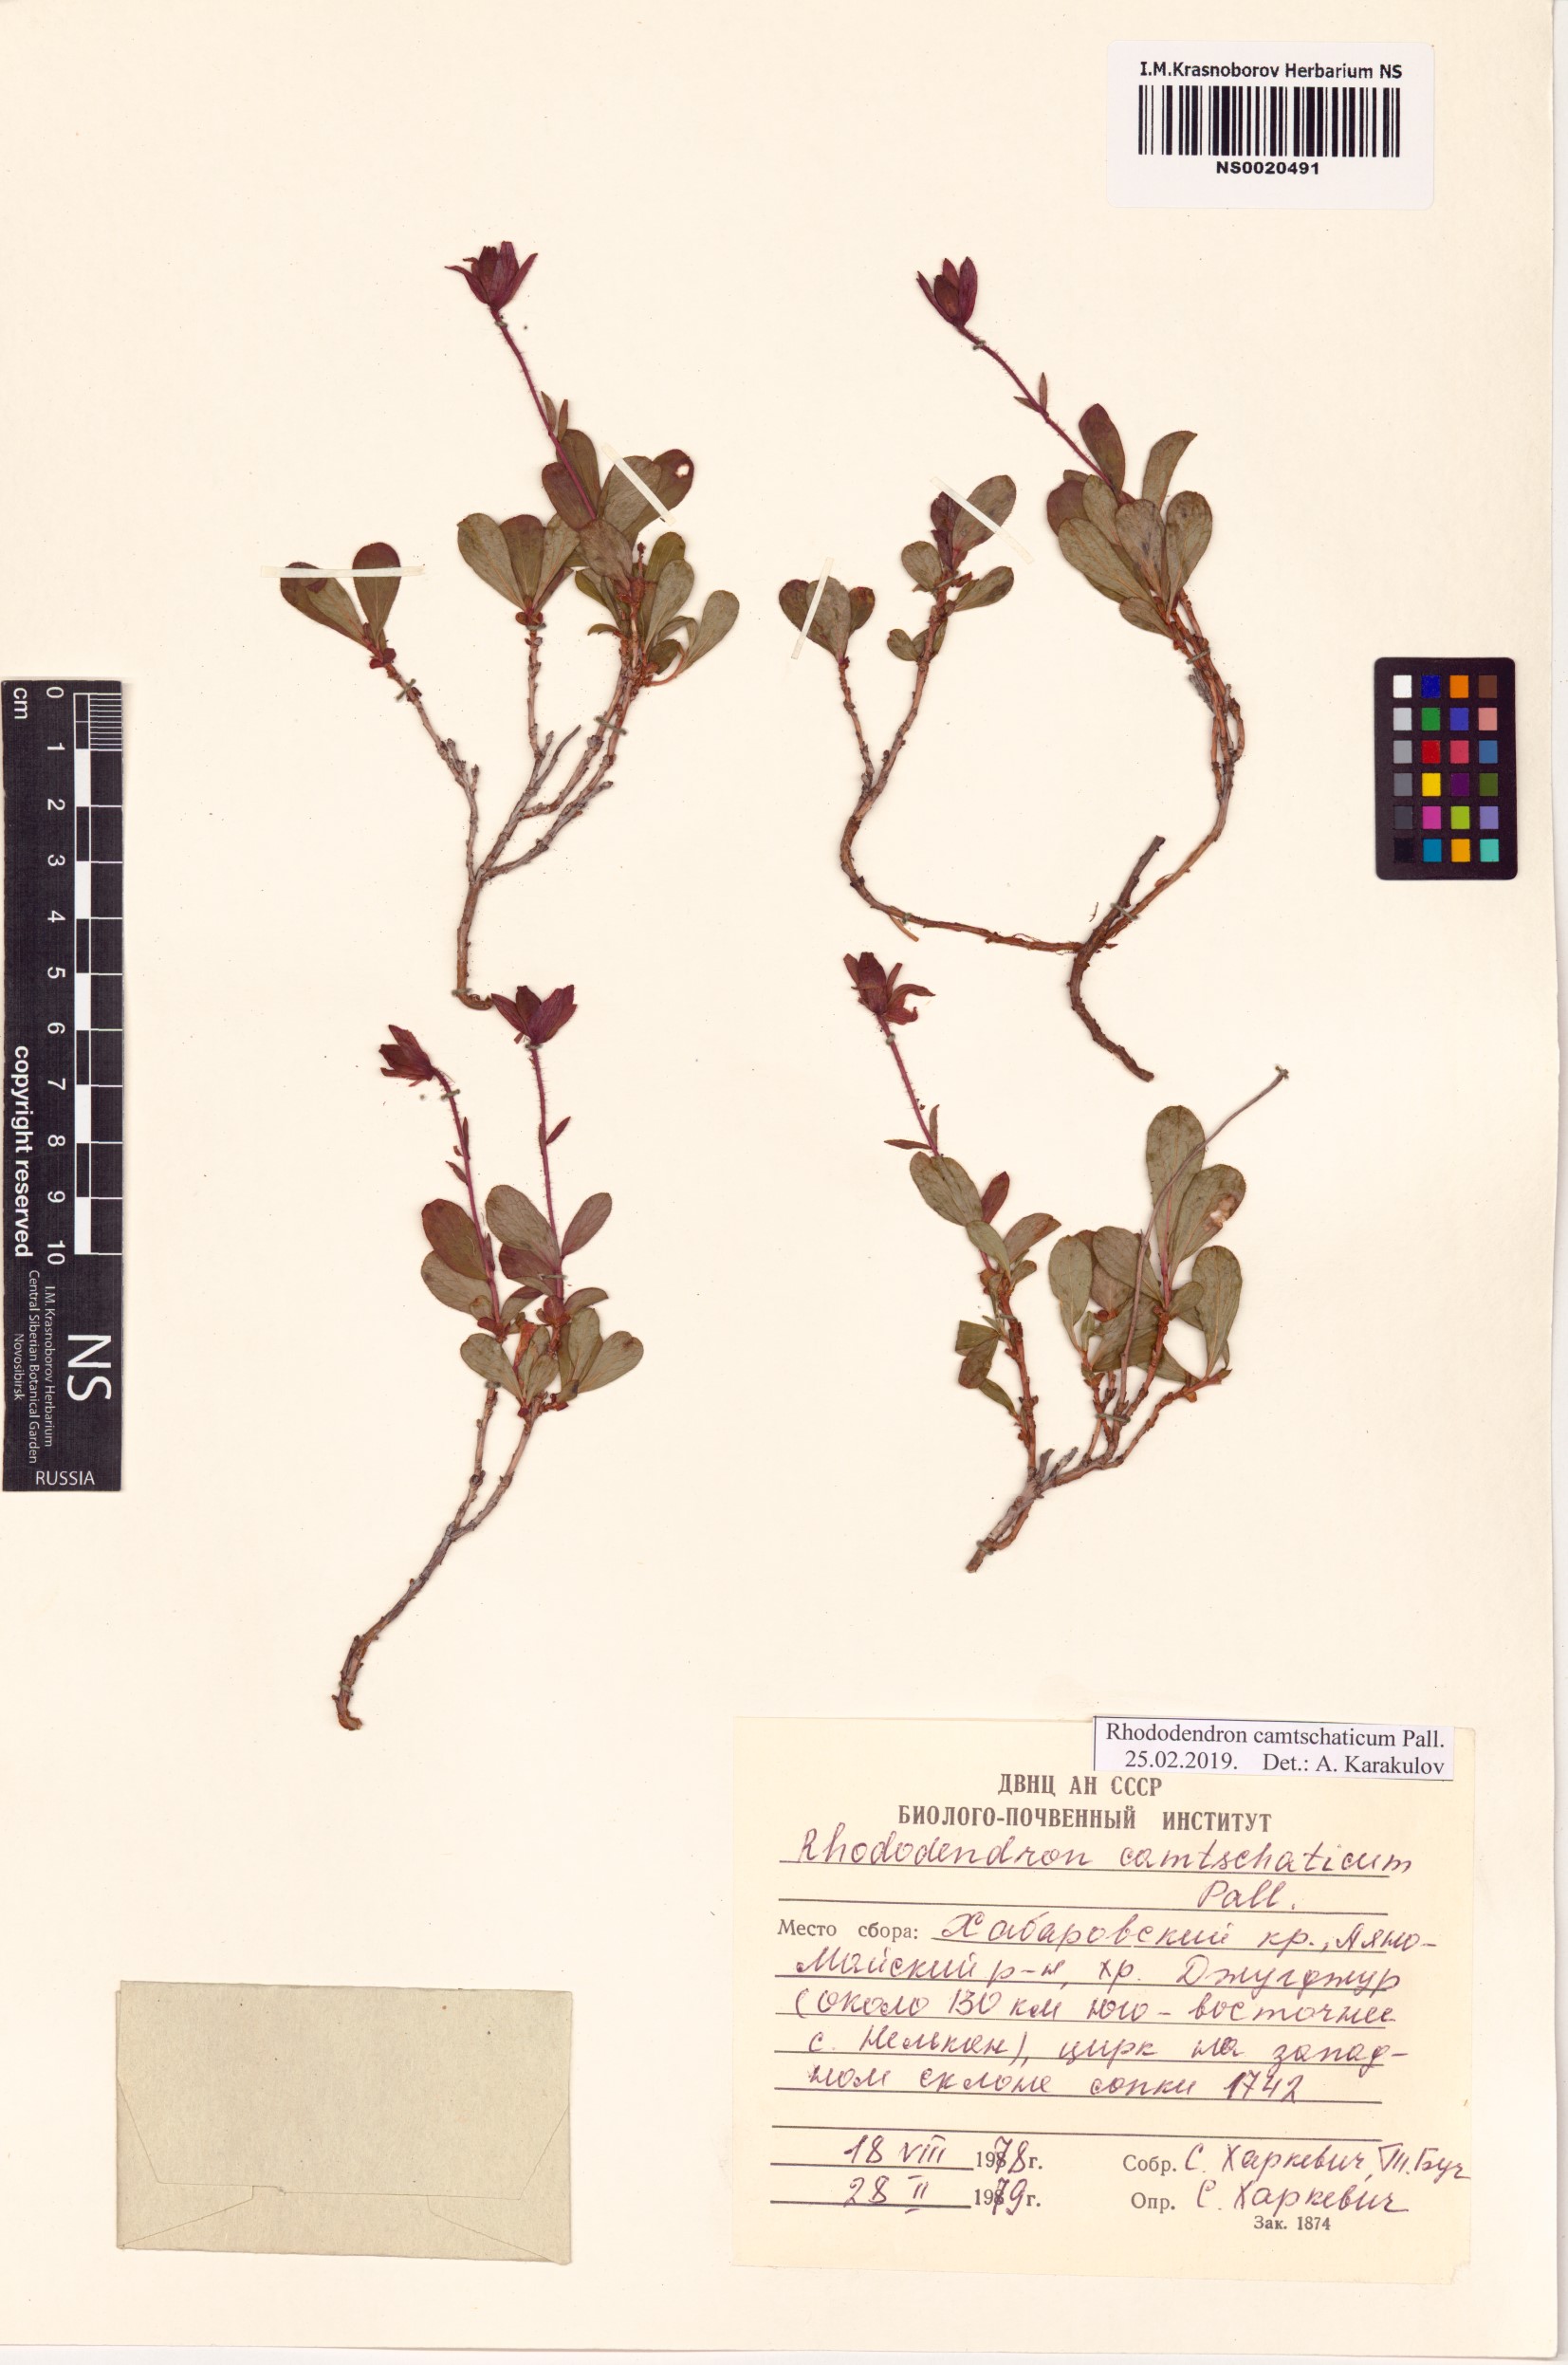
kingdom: Plantae
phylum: Tracheophyta
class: Magnoliopsida
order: Ericales
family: Ericaceae
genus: Rhododendron
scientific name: Rhododendron camtschaticum
